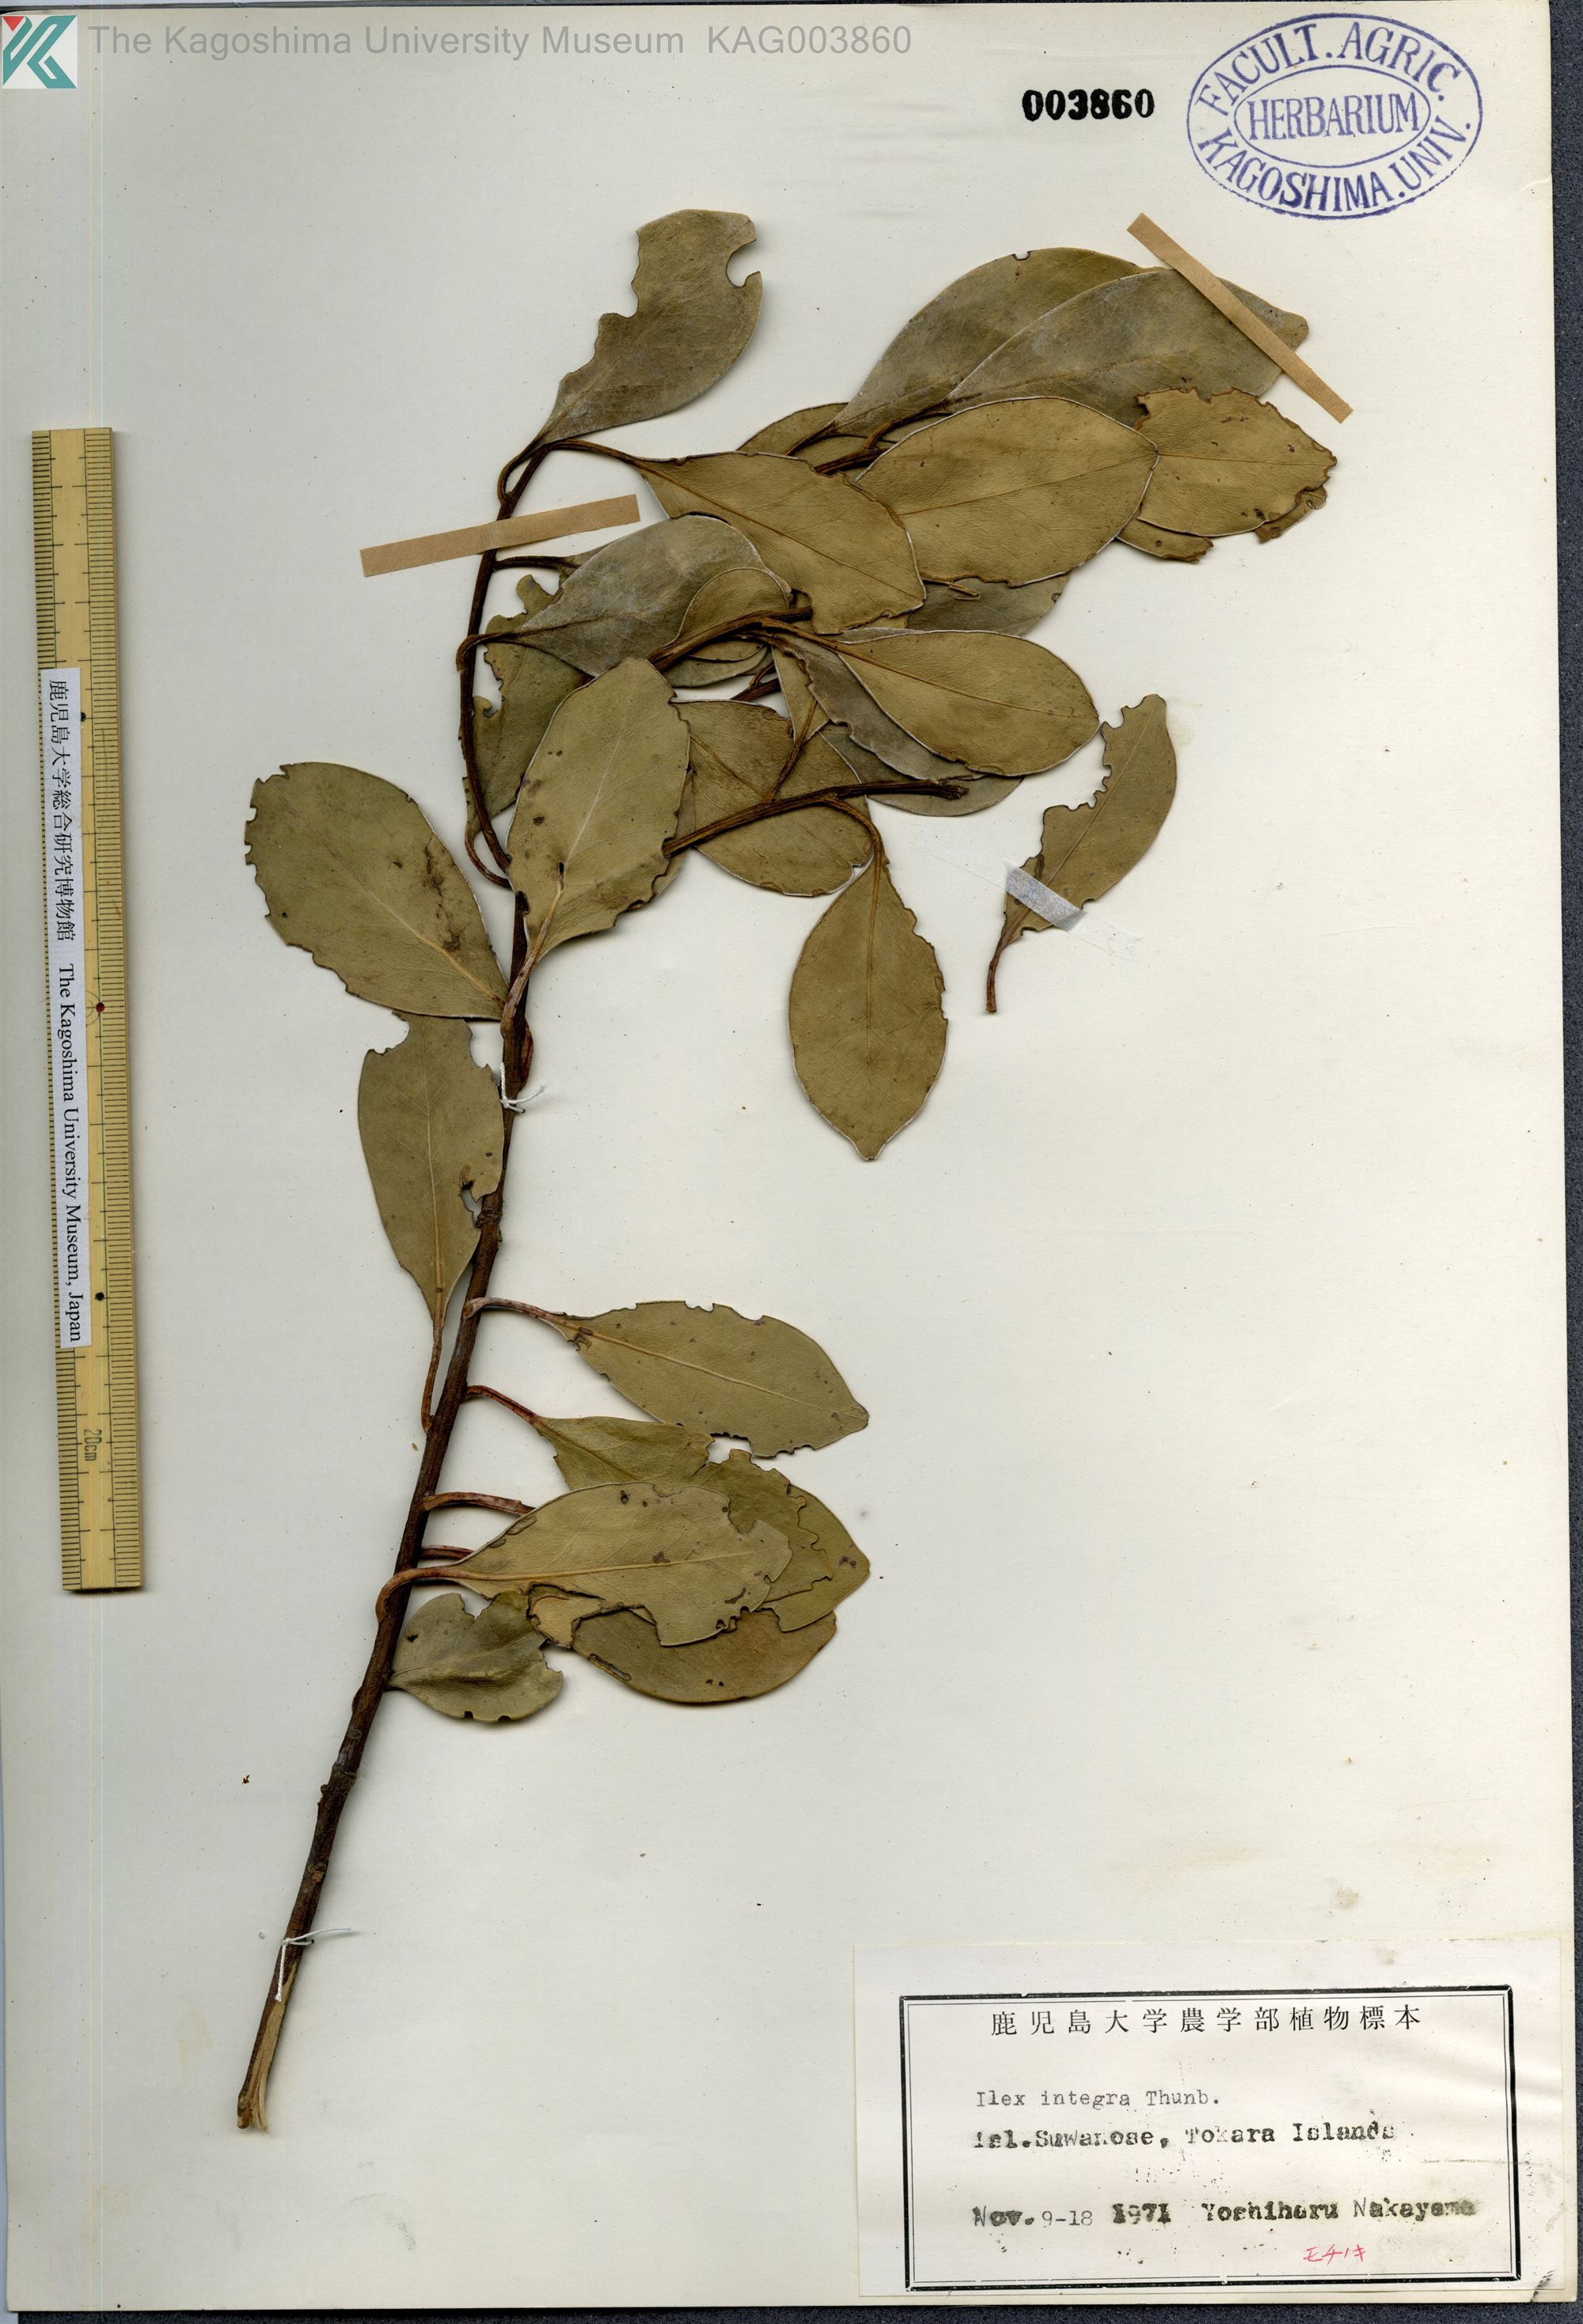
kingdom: Plantae
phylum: Tracheophyta
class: Magnoliopsida
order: Aquifoliales
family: Aquifoliaceae
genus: Ilex
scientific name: Ilex integra
